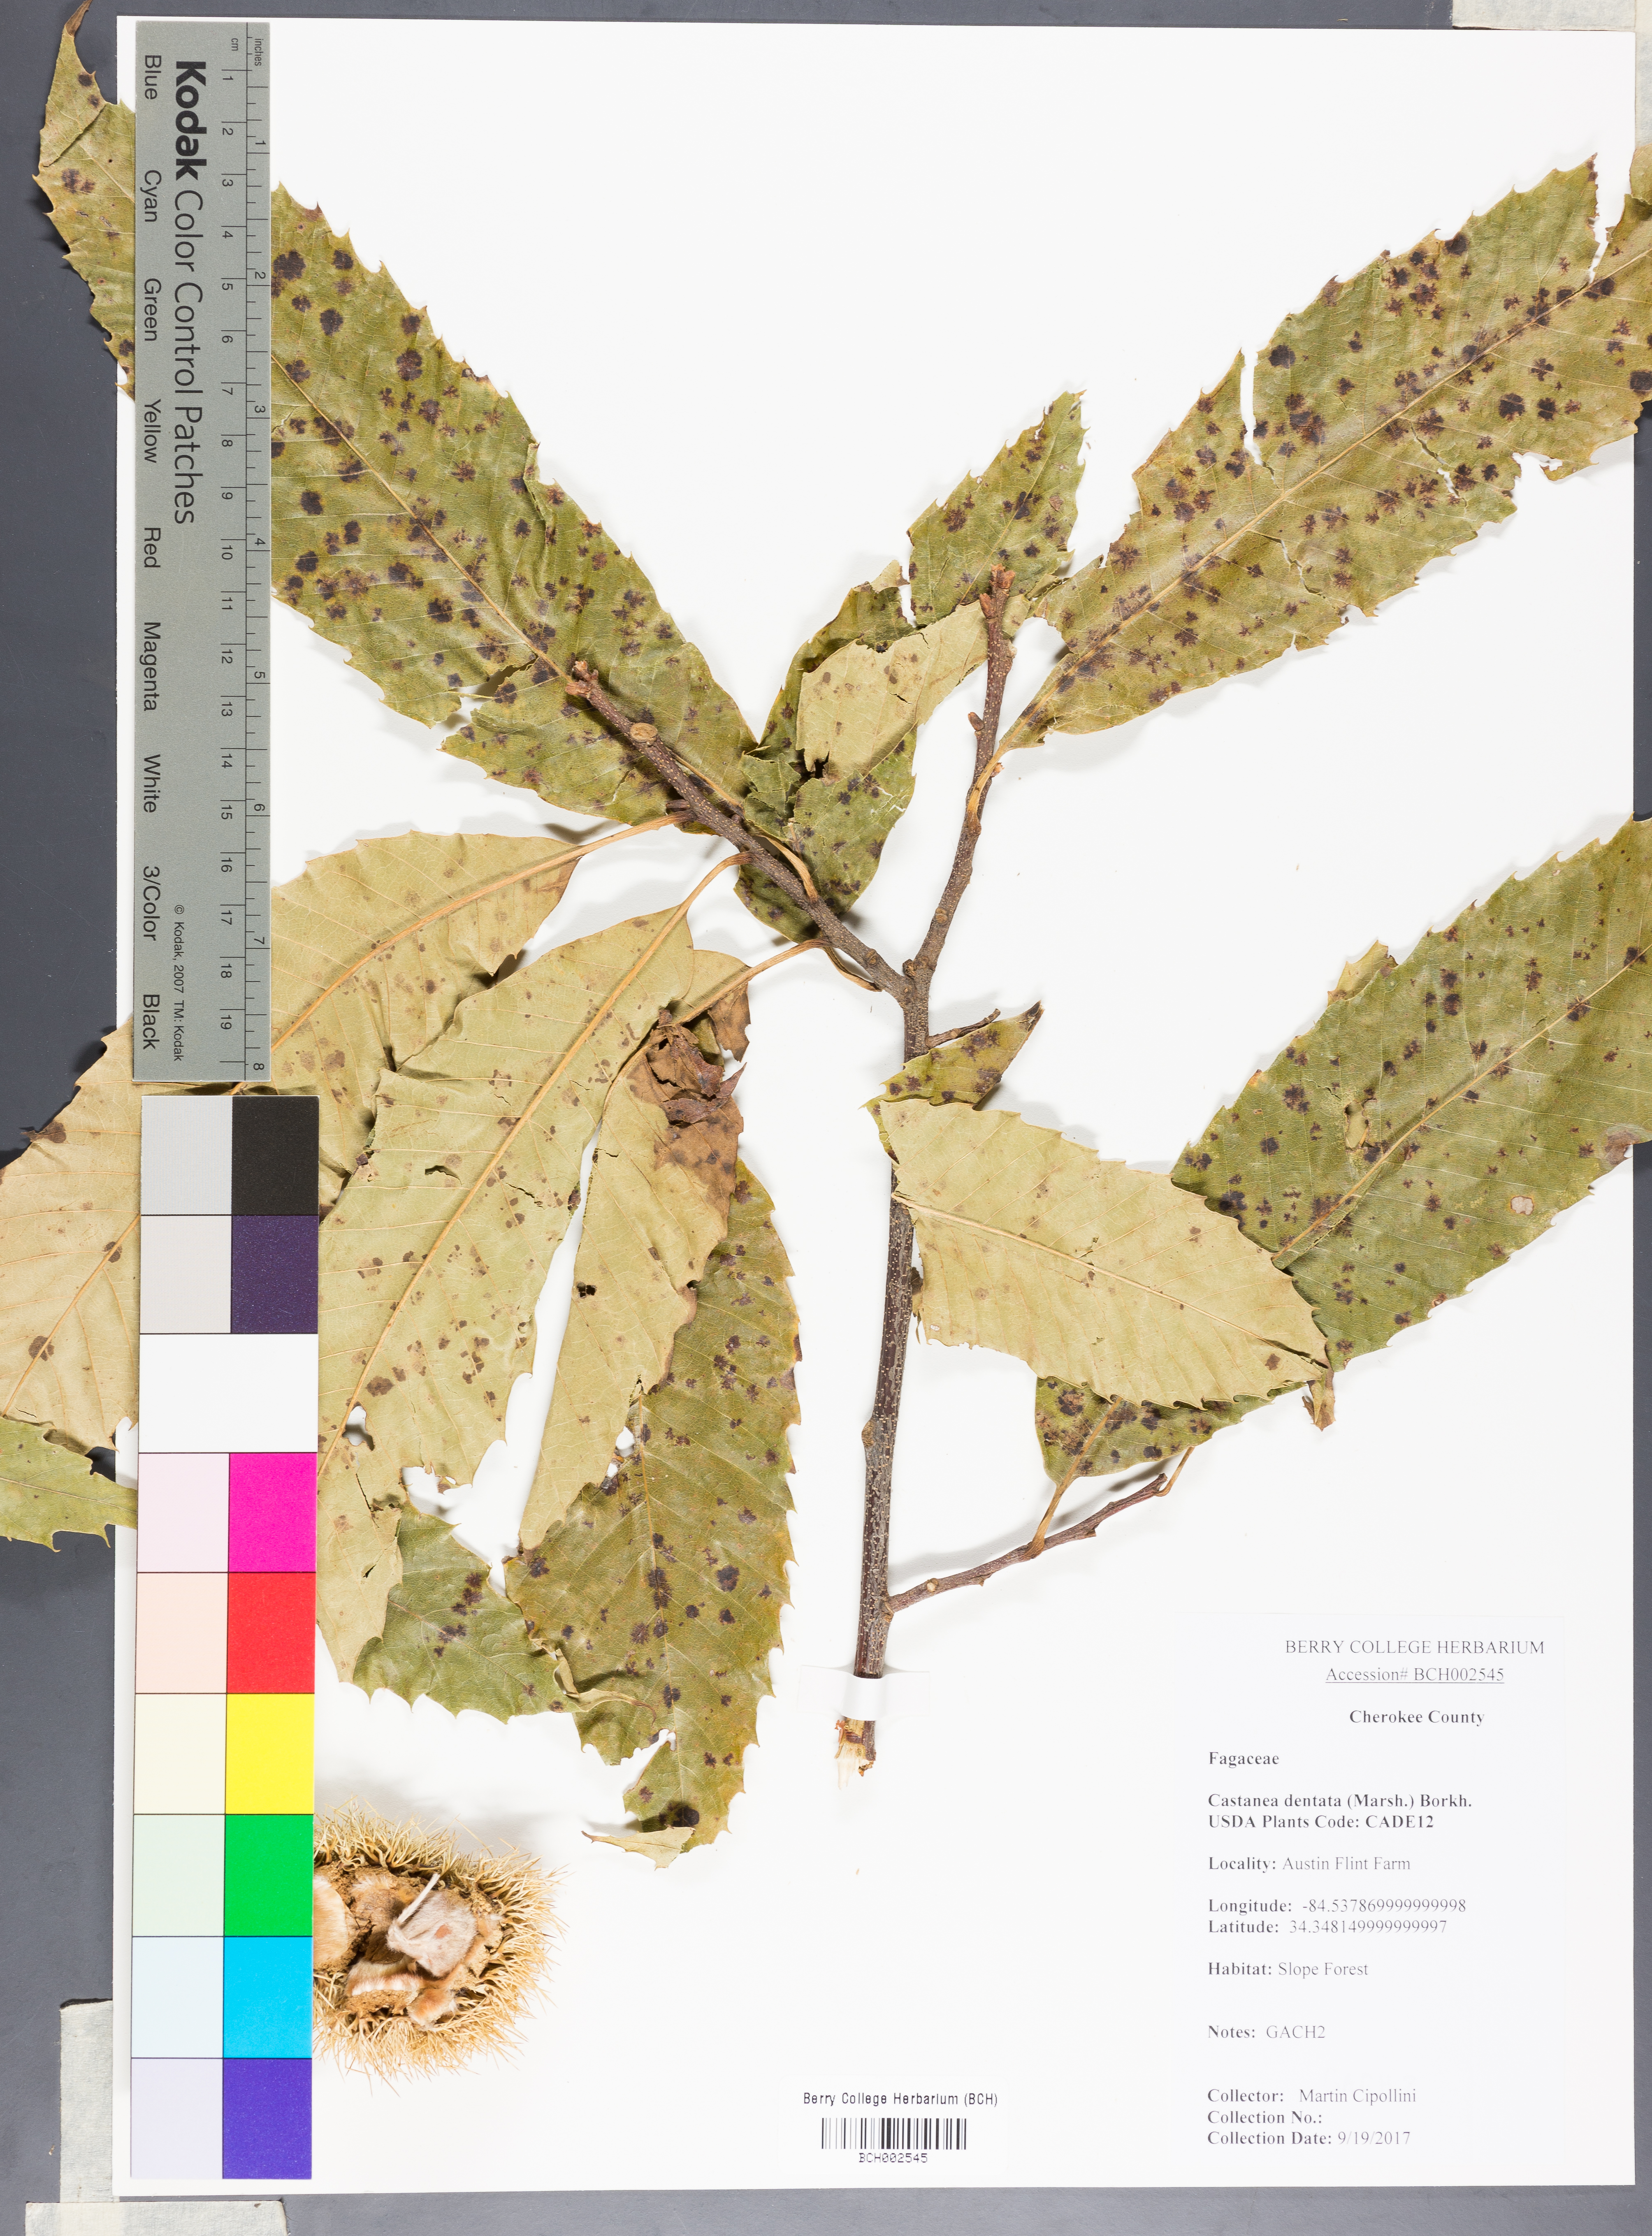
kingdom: Plantae
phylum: Tracheophyta
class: Magnoliopsida
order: Fagales
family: Fagaceae
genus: Castanea
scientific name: Castanea dentata
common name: American chestnut
